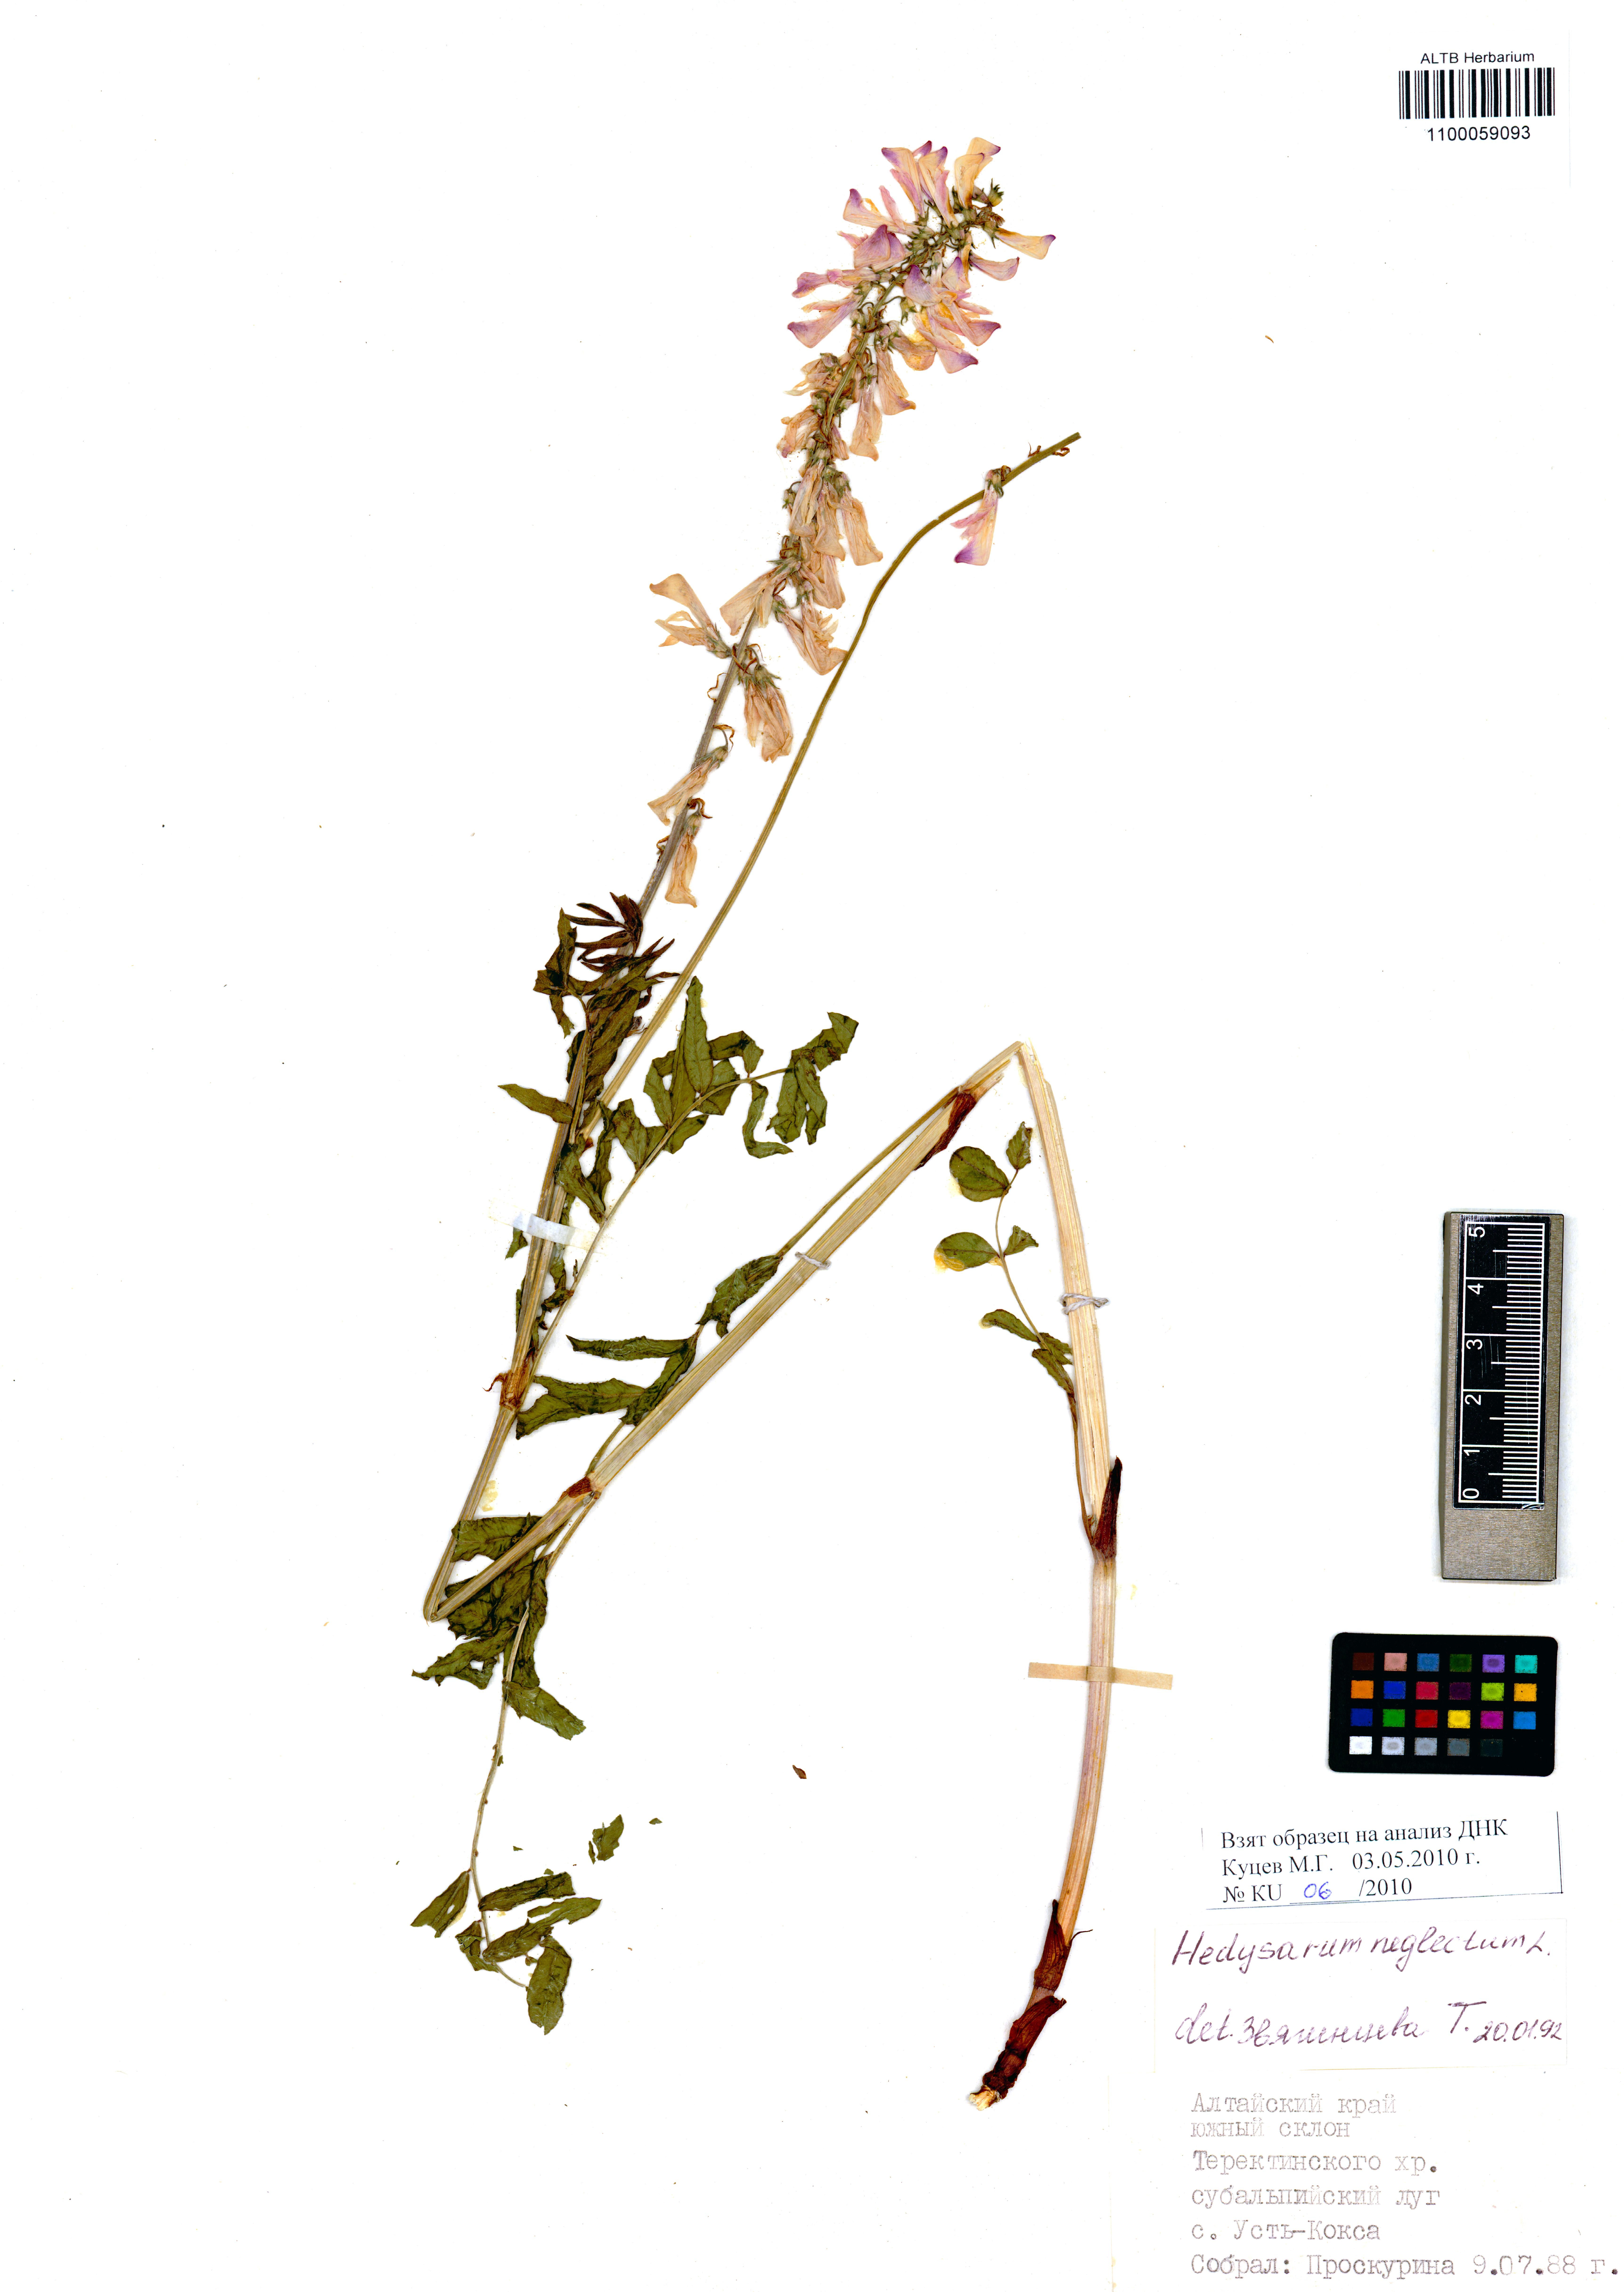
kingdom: Plantae
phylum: Tracheophyta
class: Magnoliopsida
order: Fabales
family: Fabaceae
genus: Hedysarum
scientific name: Hedysarum neglectum
